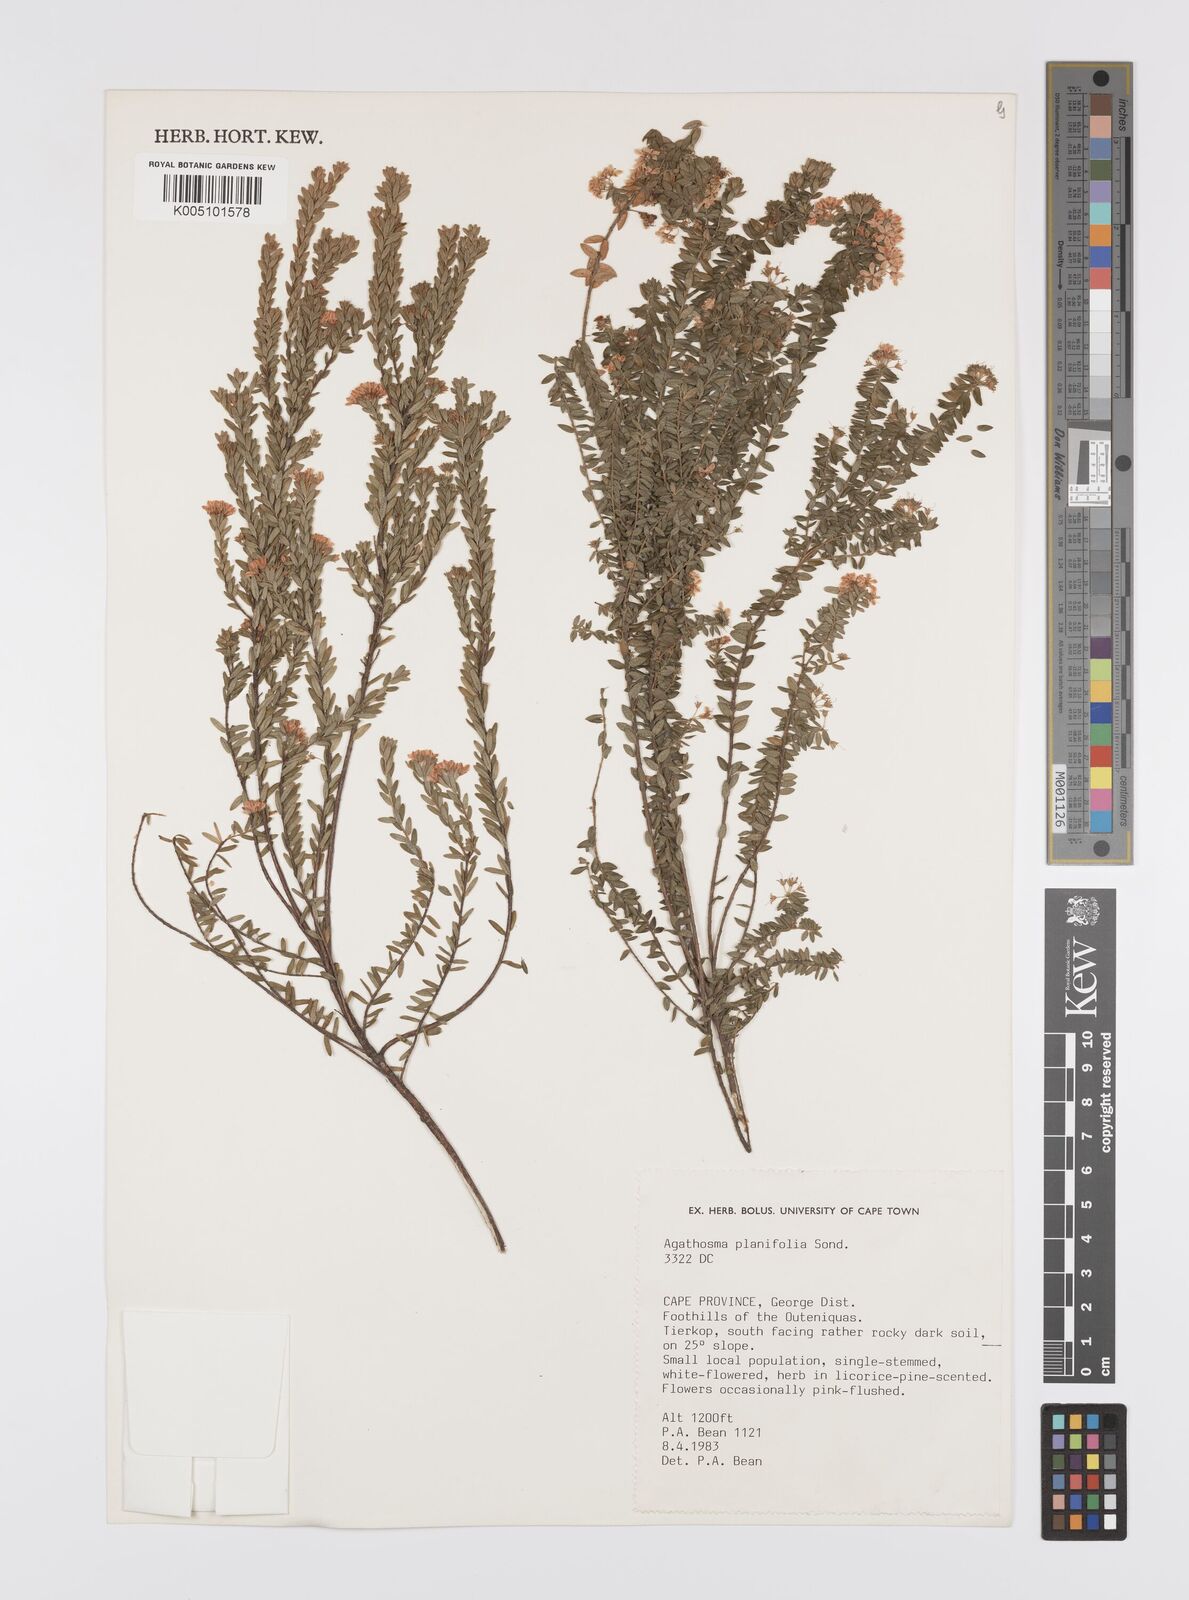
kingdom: Plantae
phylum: Tracheophyta
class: Magnoliopsida
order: Sapindales
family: Rutaceae
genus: Agathosma
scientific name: Agathosma planifolia
